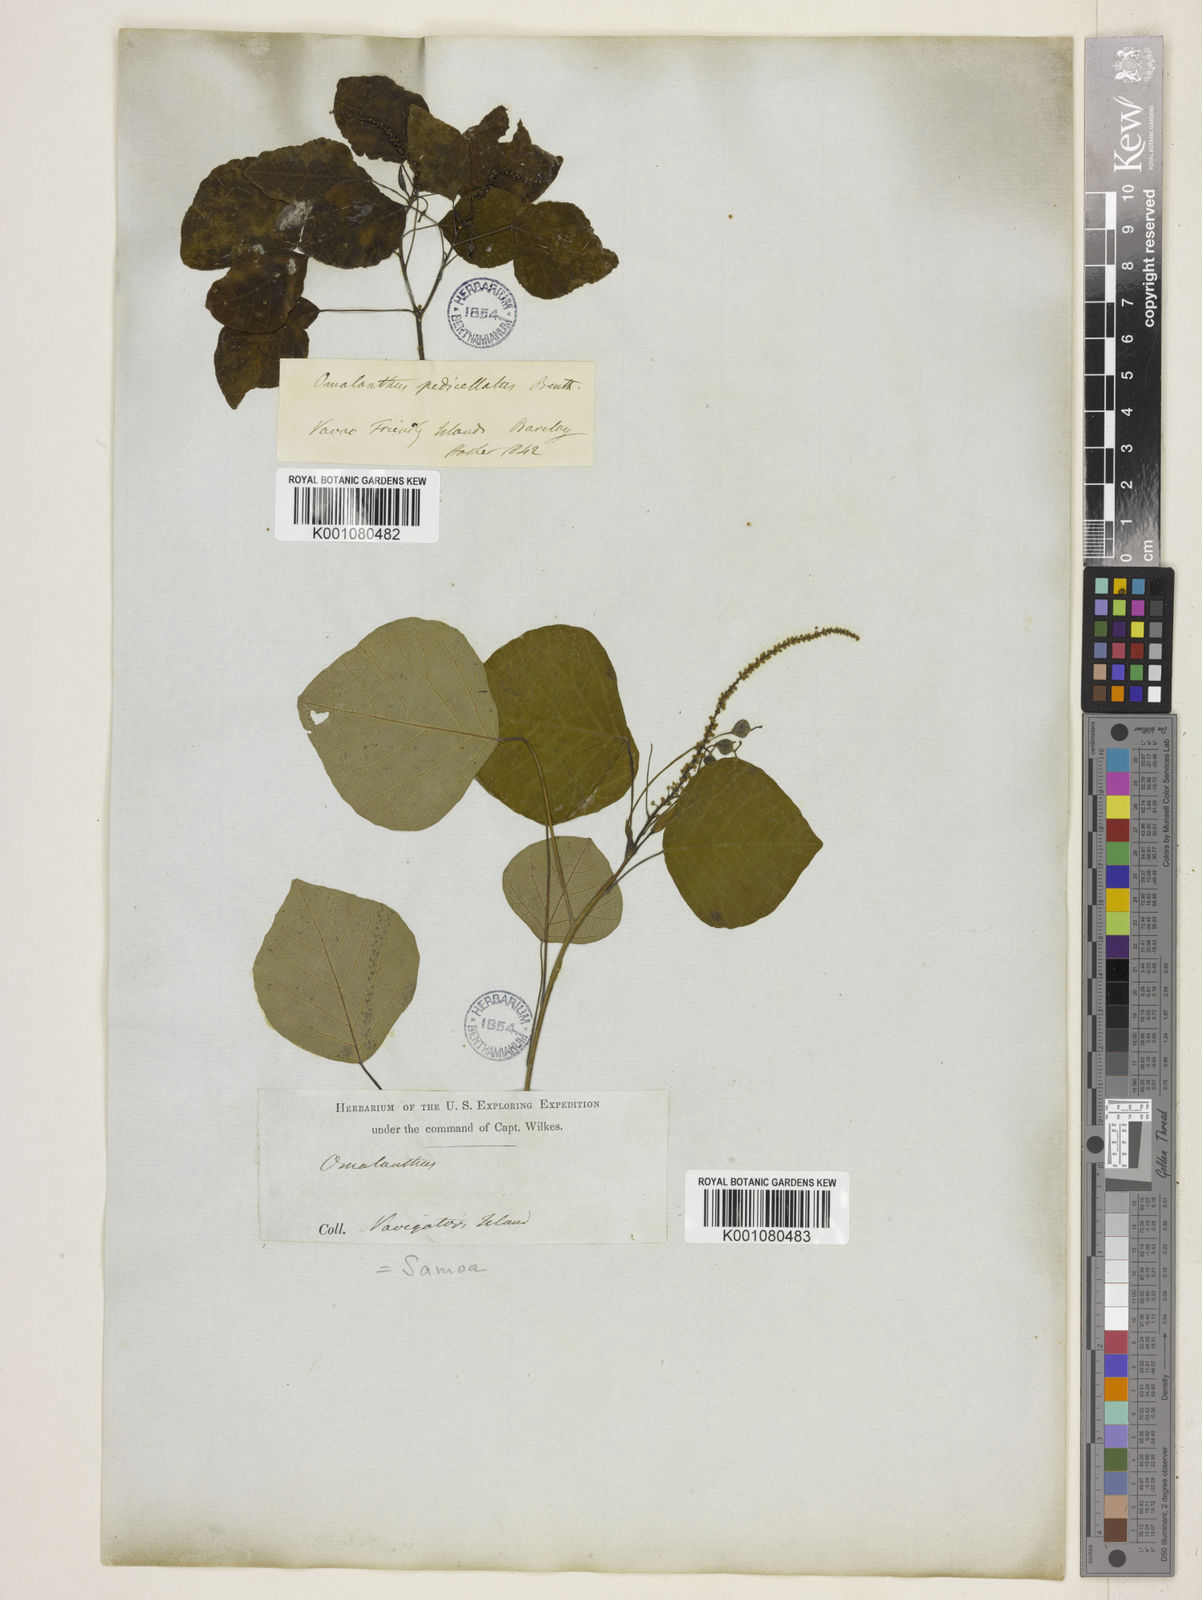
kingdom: Plantae
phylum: Tracheophyta
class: Magnoliopsida
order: Malpighiales
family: Euphorbiaceae
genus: Homalanthus
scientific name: Homalanthus nutans
